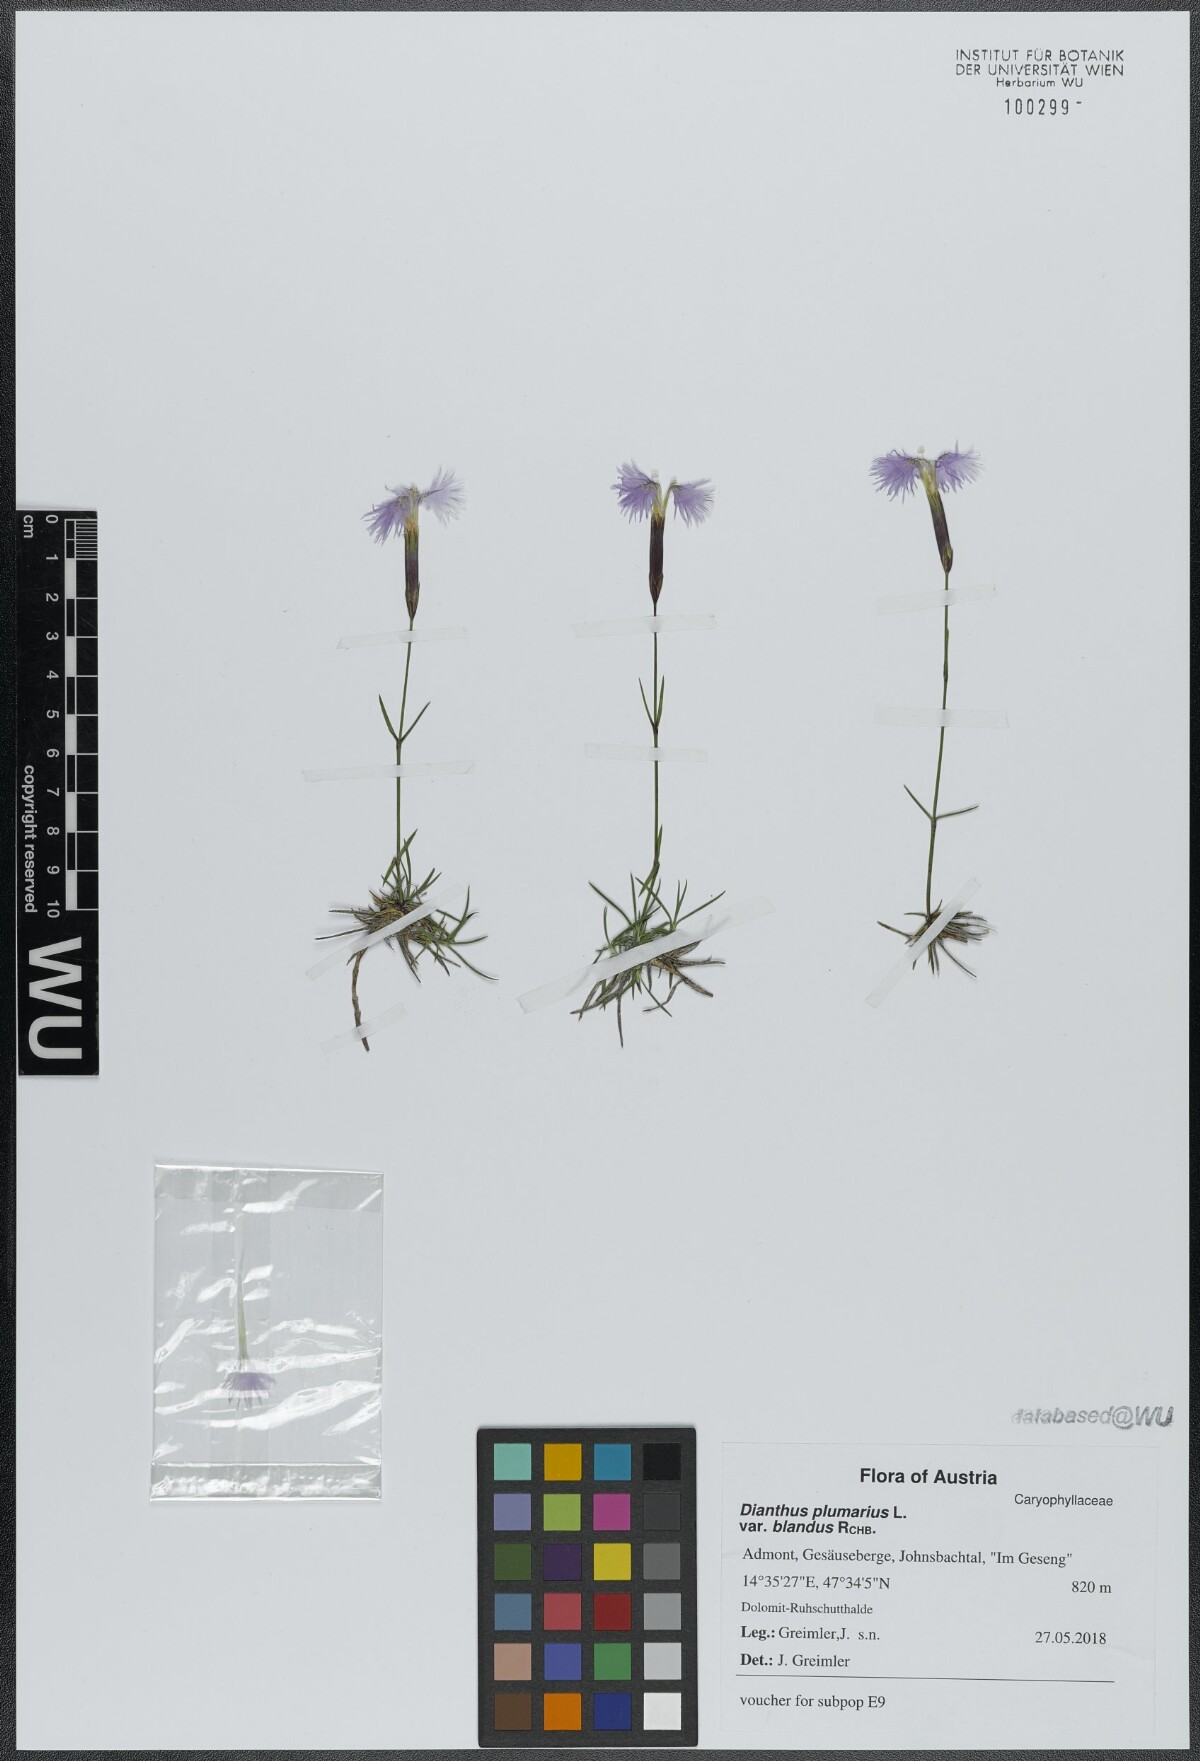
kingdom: Plantae
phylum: Tracheophyta
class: Magnoliopsida
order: Caryophyllales
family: Caryophyllaceae
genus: Dianthus
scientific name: Dianthus plumarius
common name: Pink
